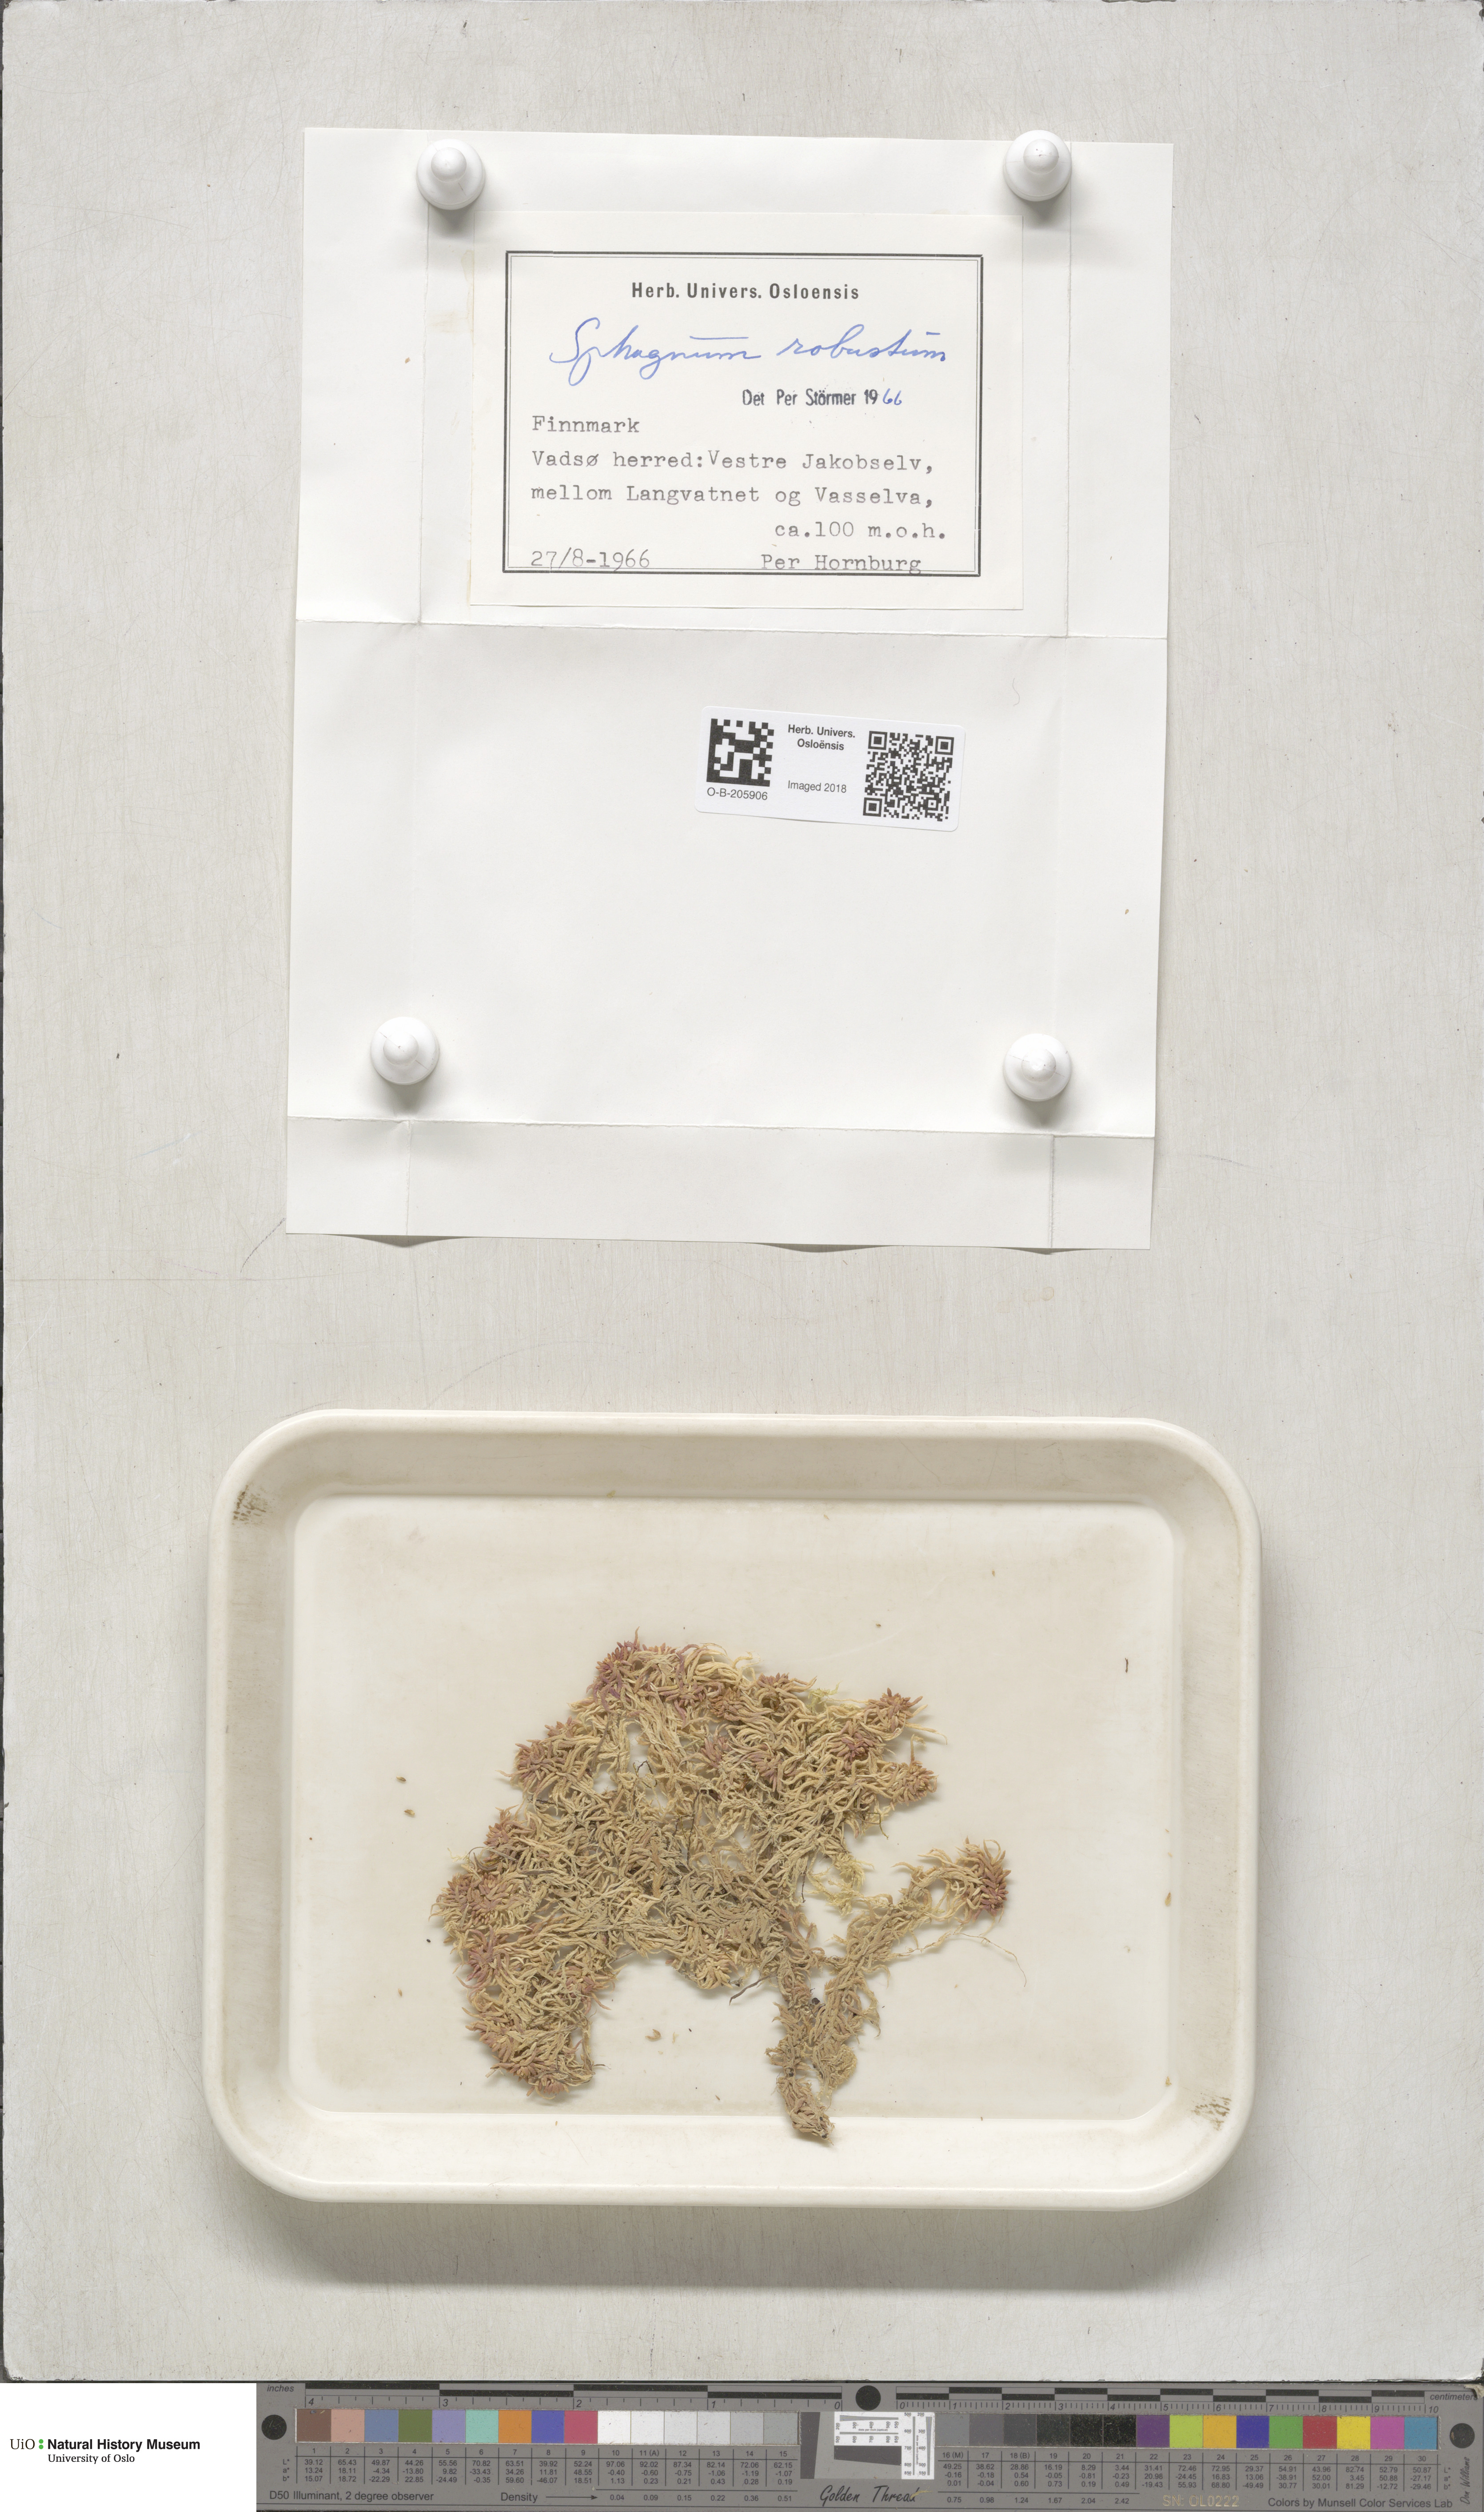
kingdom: Plantae
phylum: Bryophyta
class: Sphagnopsida
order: Sphagnales
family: Sphagnaceae
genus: Sphagnum
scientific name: Sphagnum russowii
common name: Russow's peat moss
